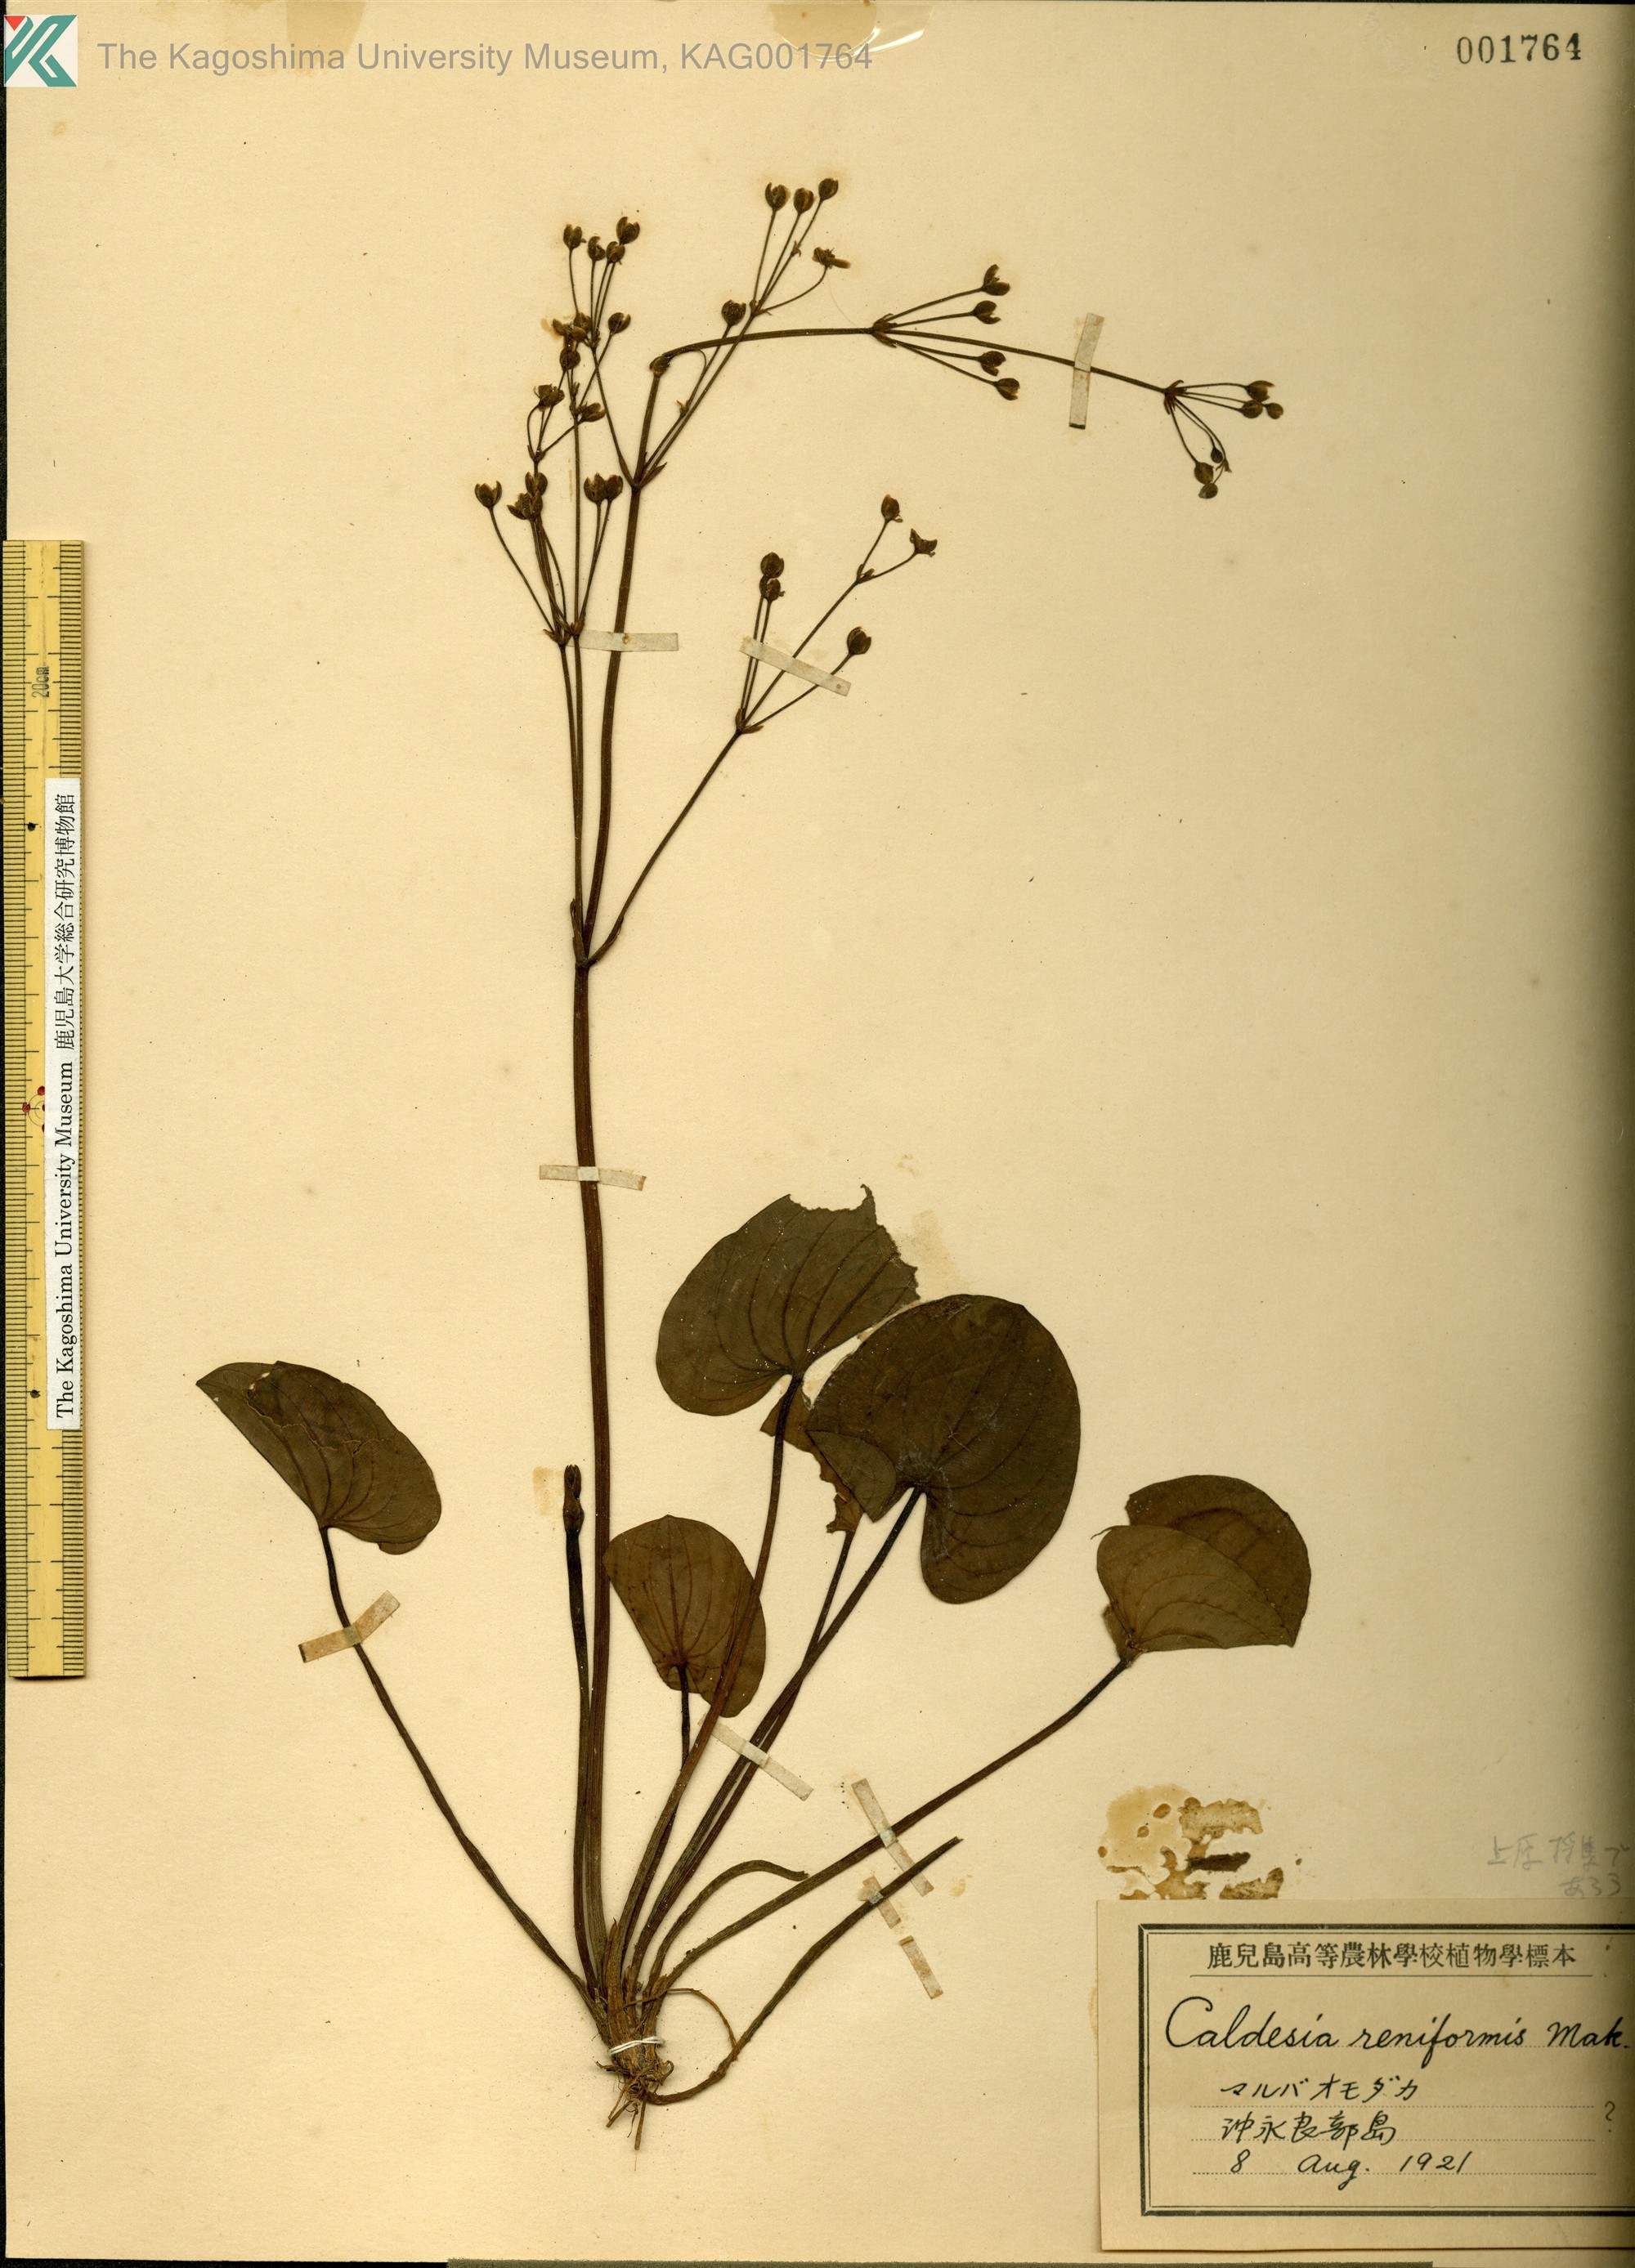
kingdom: Plantae
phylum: Tracheophyta
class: Liliopsida
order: Alismatales
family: Alismataceae
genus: Caldesia
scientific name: Caldesia parnassifolia
